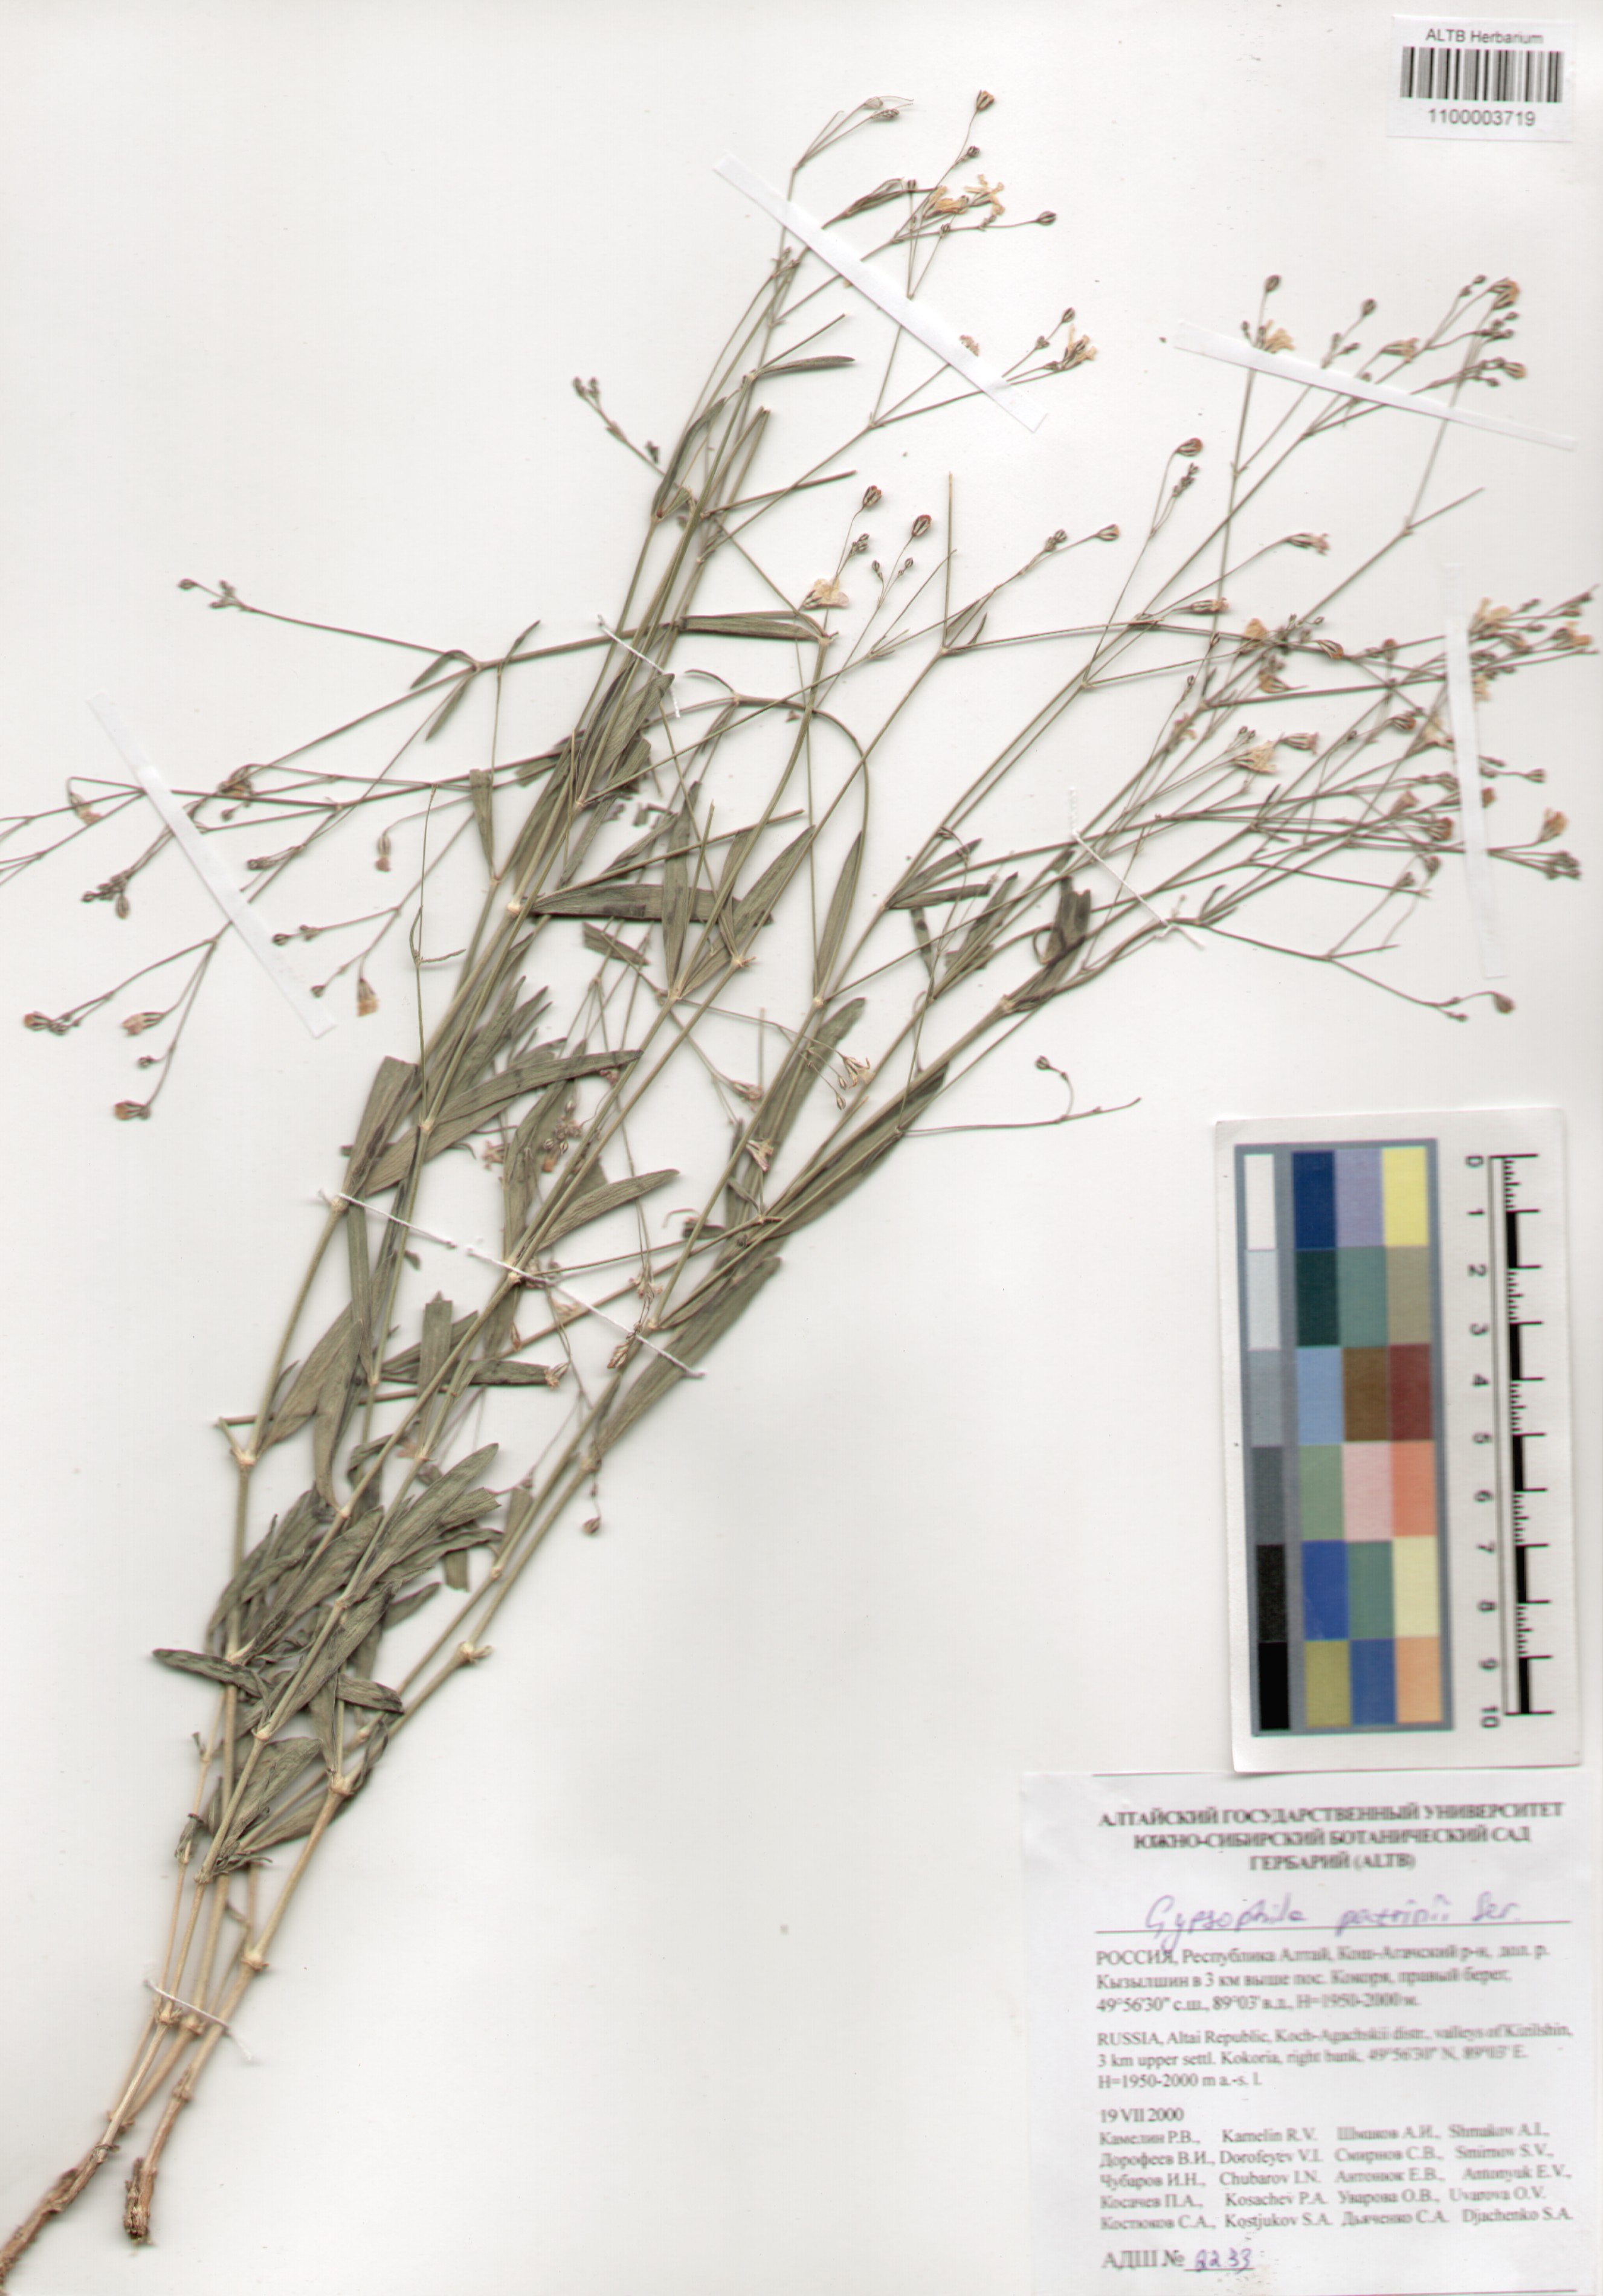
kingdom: Plantae
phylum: Tracheophyta
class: Magnoliopsida
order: Caryophyllales
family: Caryophyllaceae
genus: Gypsophila
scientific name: Gypsophila patrinii
